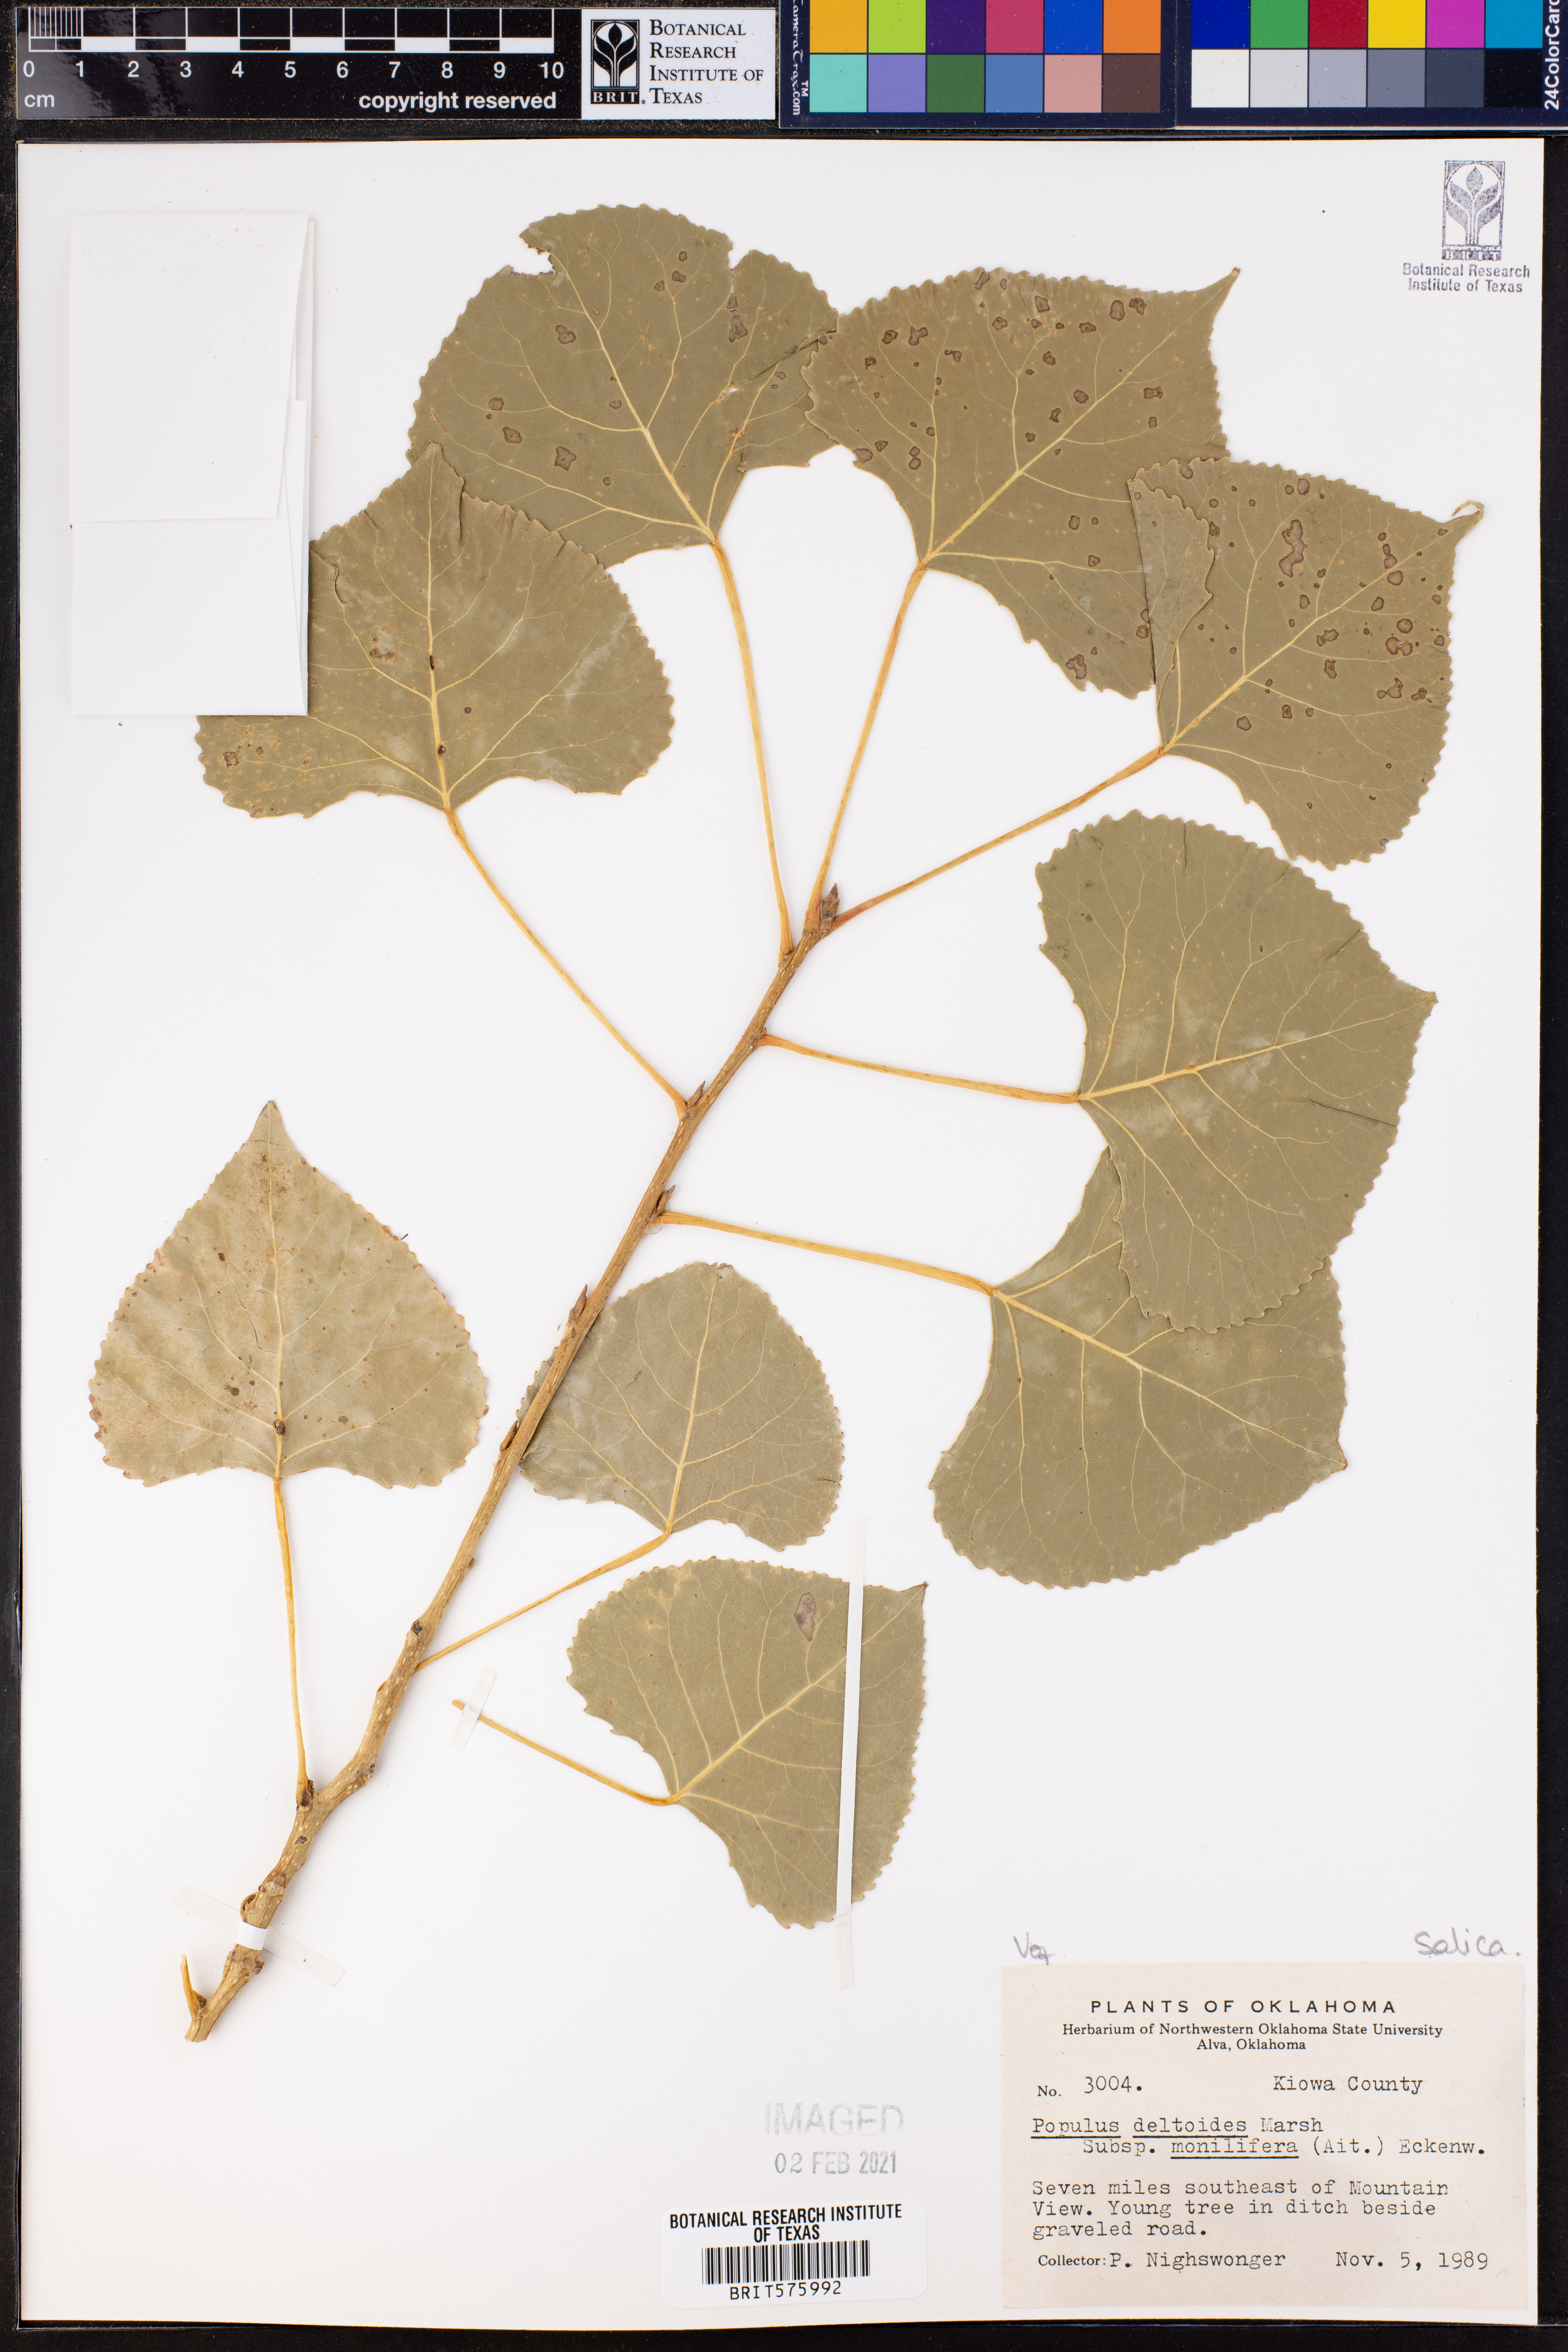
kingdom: Plantae
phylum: Tracheophyta
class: Magnoliopsida
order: Malpighiales
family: Salicaceae
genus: Populus
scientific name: Populus deltoides
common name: Eastern cottonwood
